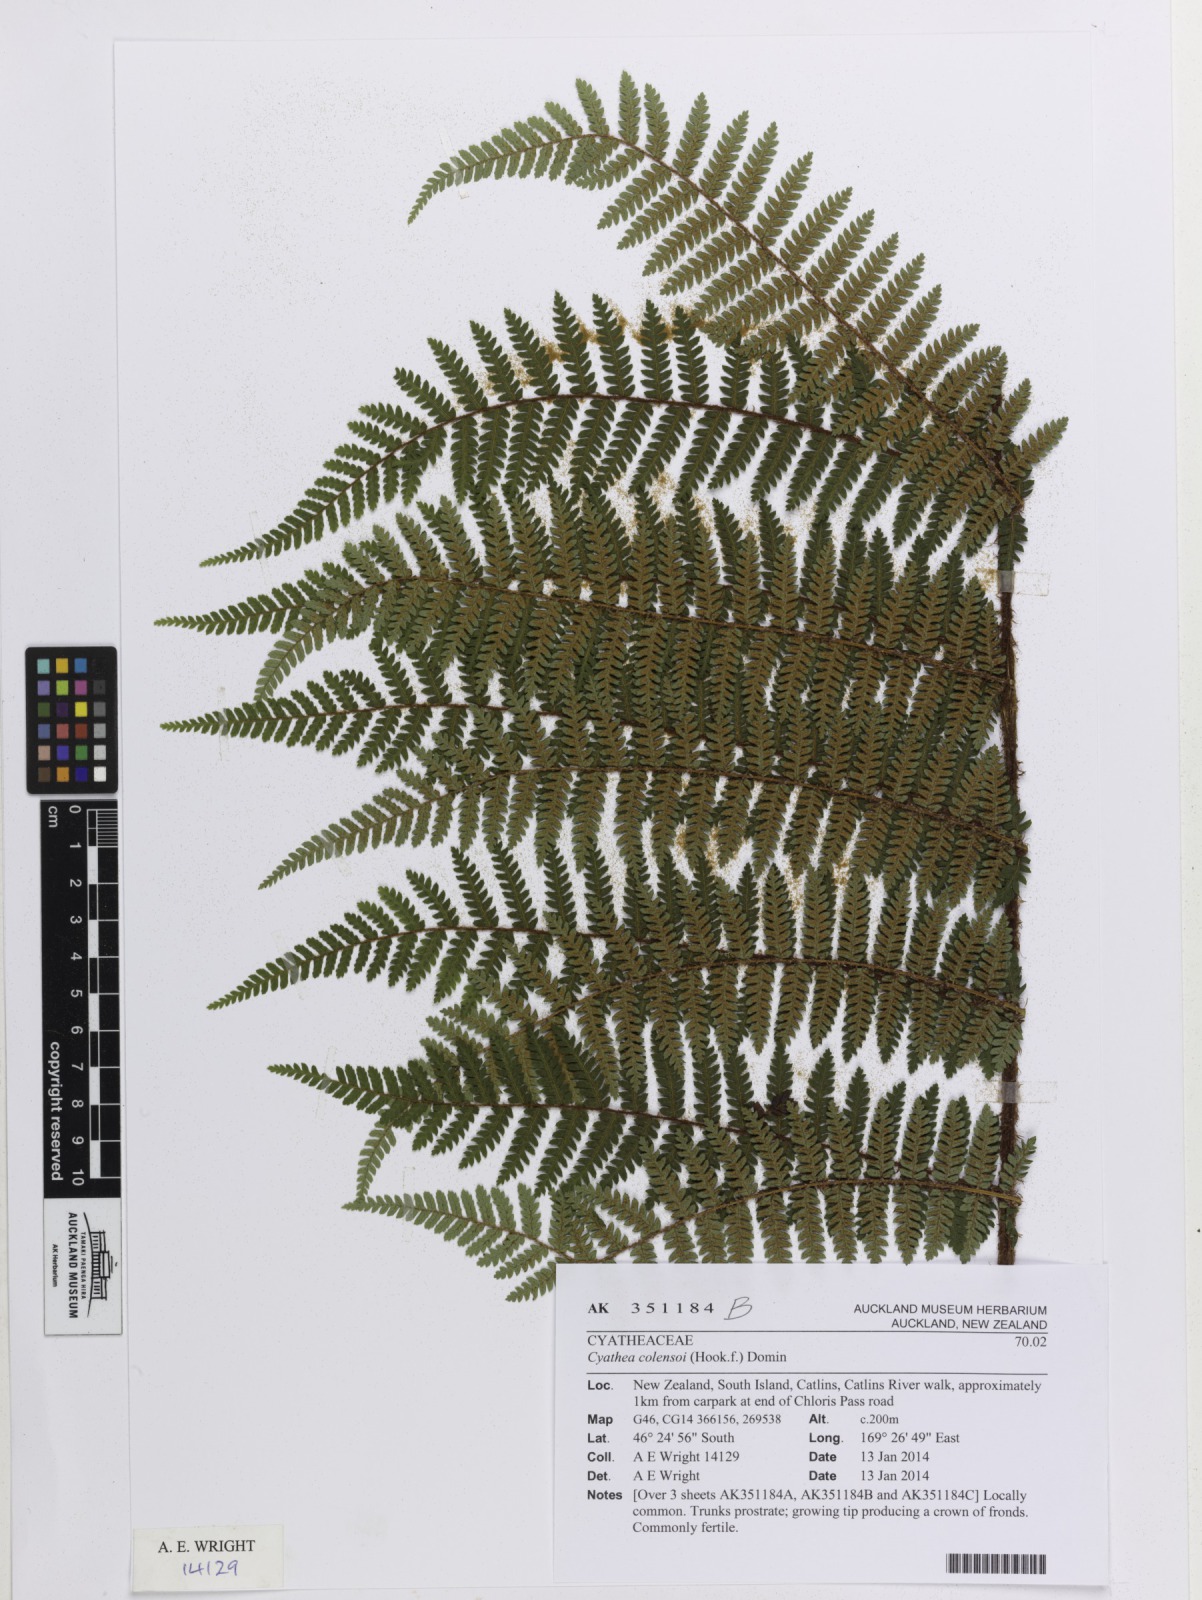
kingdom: Plantae
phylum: Tracheophyta
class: Polypodiopsida
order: Cyatheales
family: Cyatheaceae
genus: Alsophila
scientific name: Alsophila colensoi
